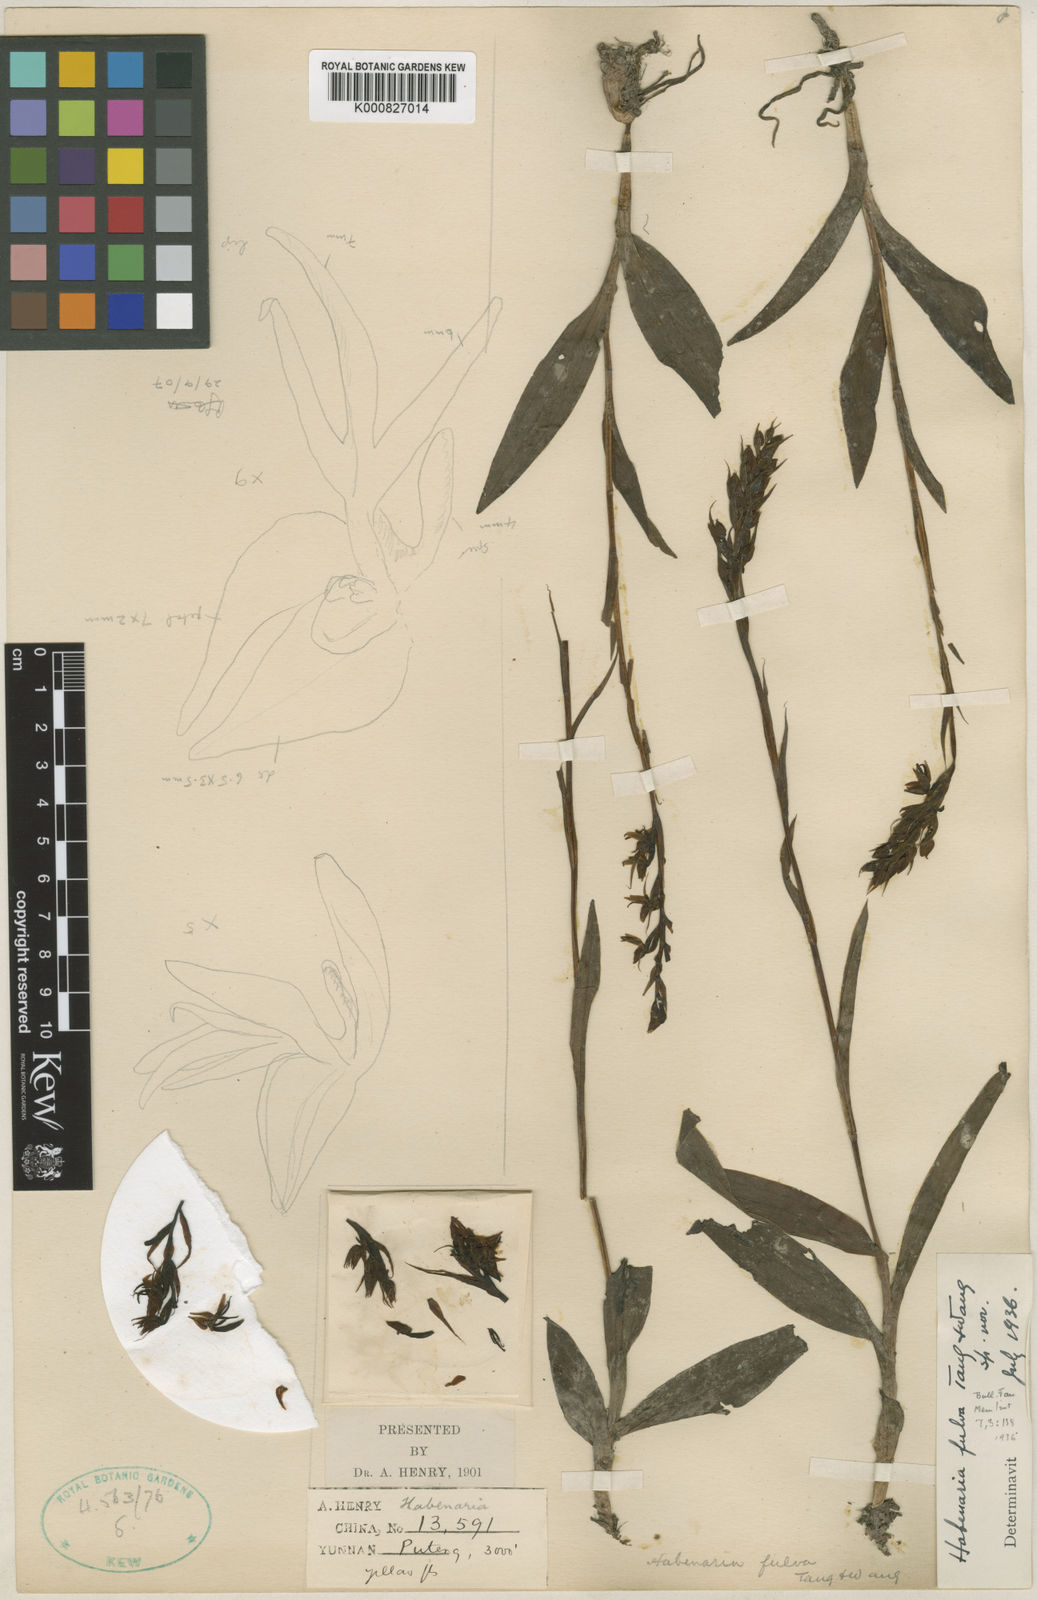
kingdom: Plantae
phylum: Tracheophyta
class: Liliopsida
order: Asparagales
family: Orchidaceae
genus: Habenaria
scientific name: Habenaria fulva
